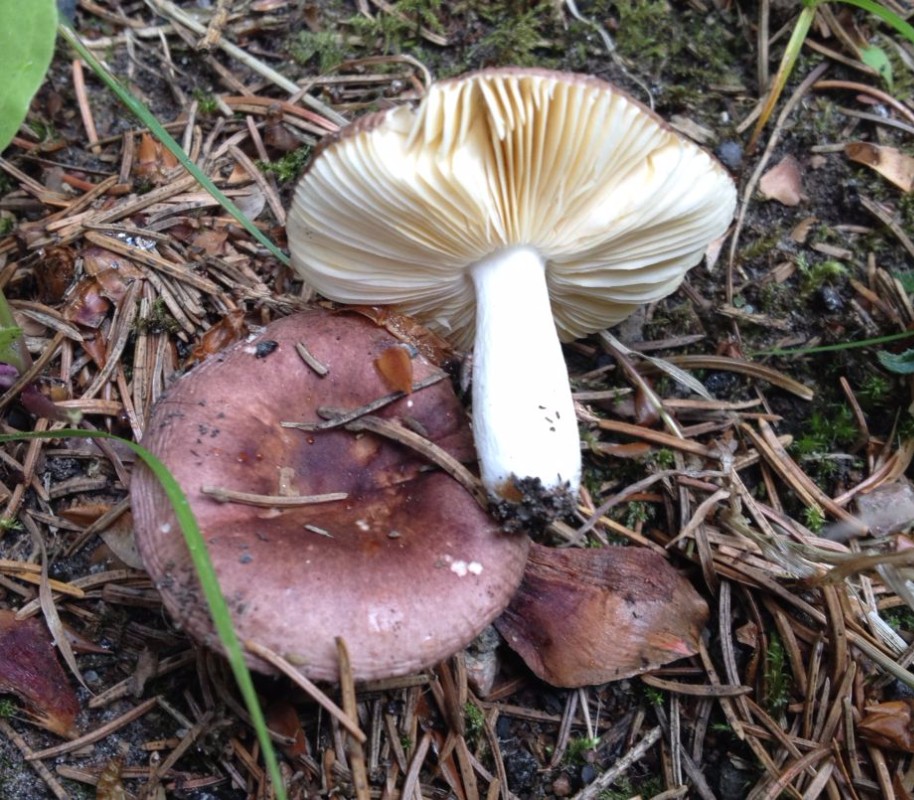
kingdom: Fungi
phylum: Basidiomycota
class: Agaricomycetes
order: Russulales
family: Russulaceae
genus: Russula
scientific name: Russula nauseosa
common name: spinkel skørhat
